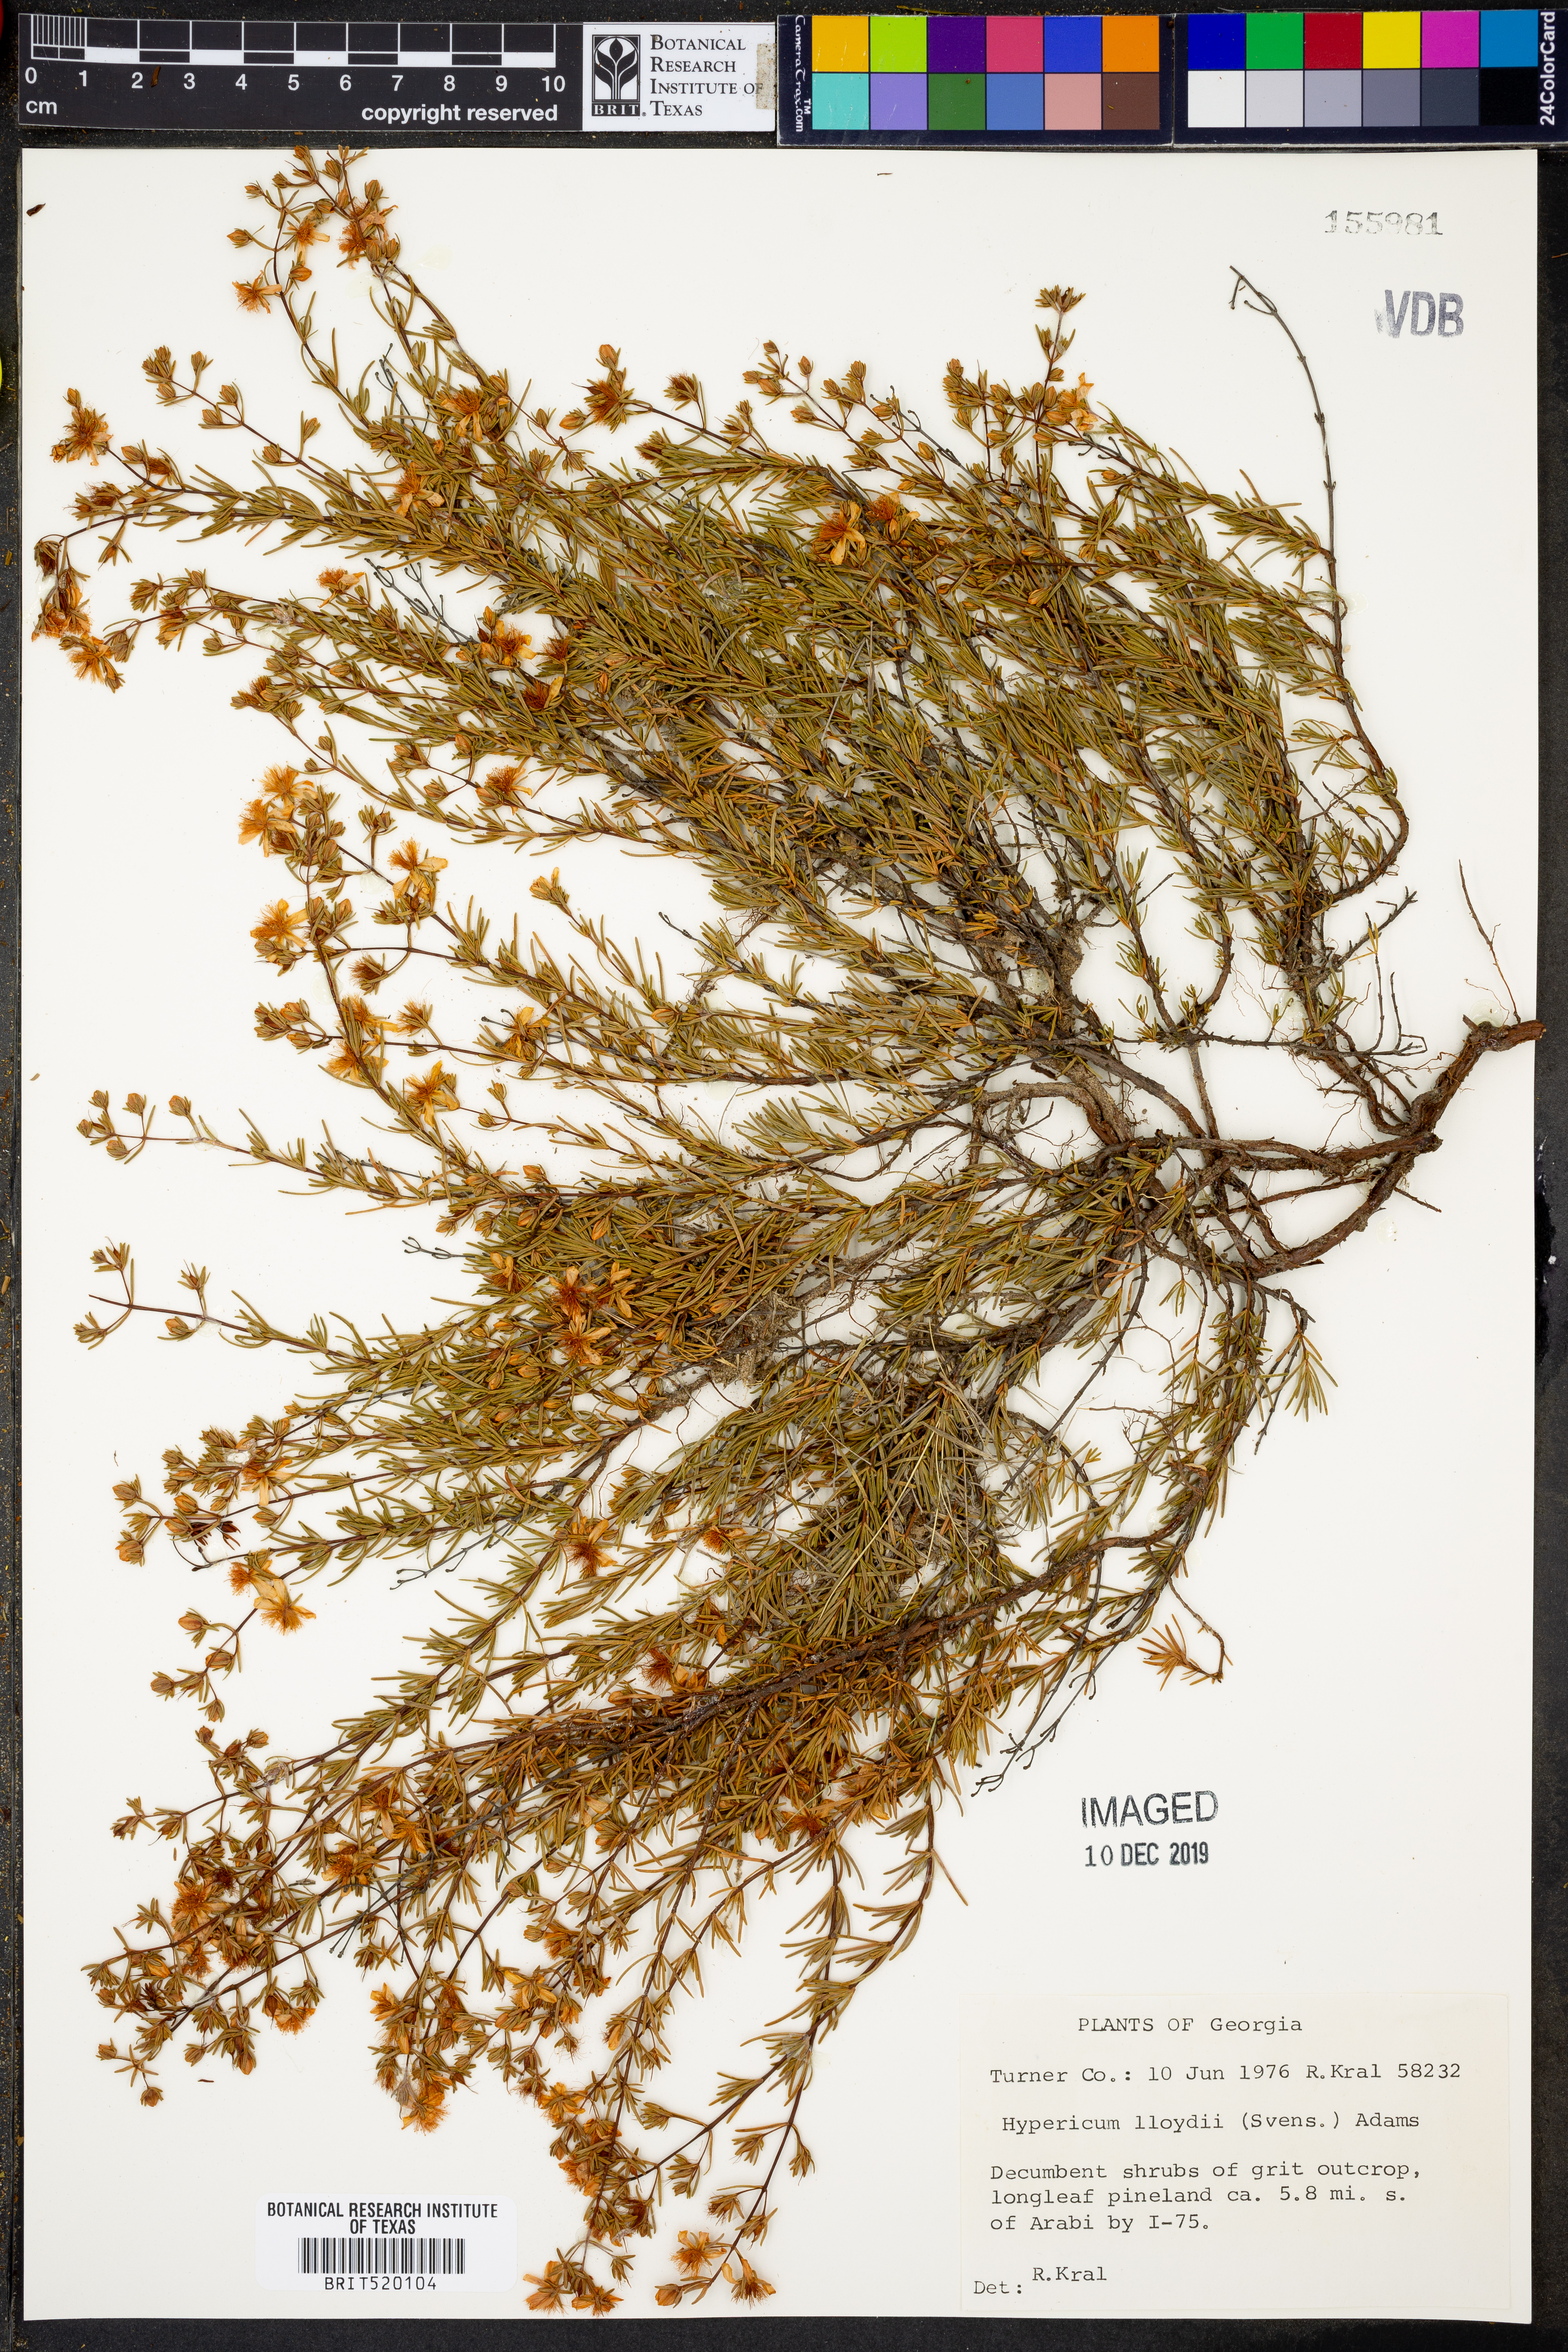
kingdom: Plantae
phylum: Tracheophyta
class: Magnoliopsida
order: Malpighiales
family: Hypericaceae
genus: Hypericum
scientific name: Hypericum lloydii
